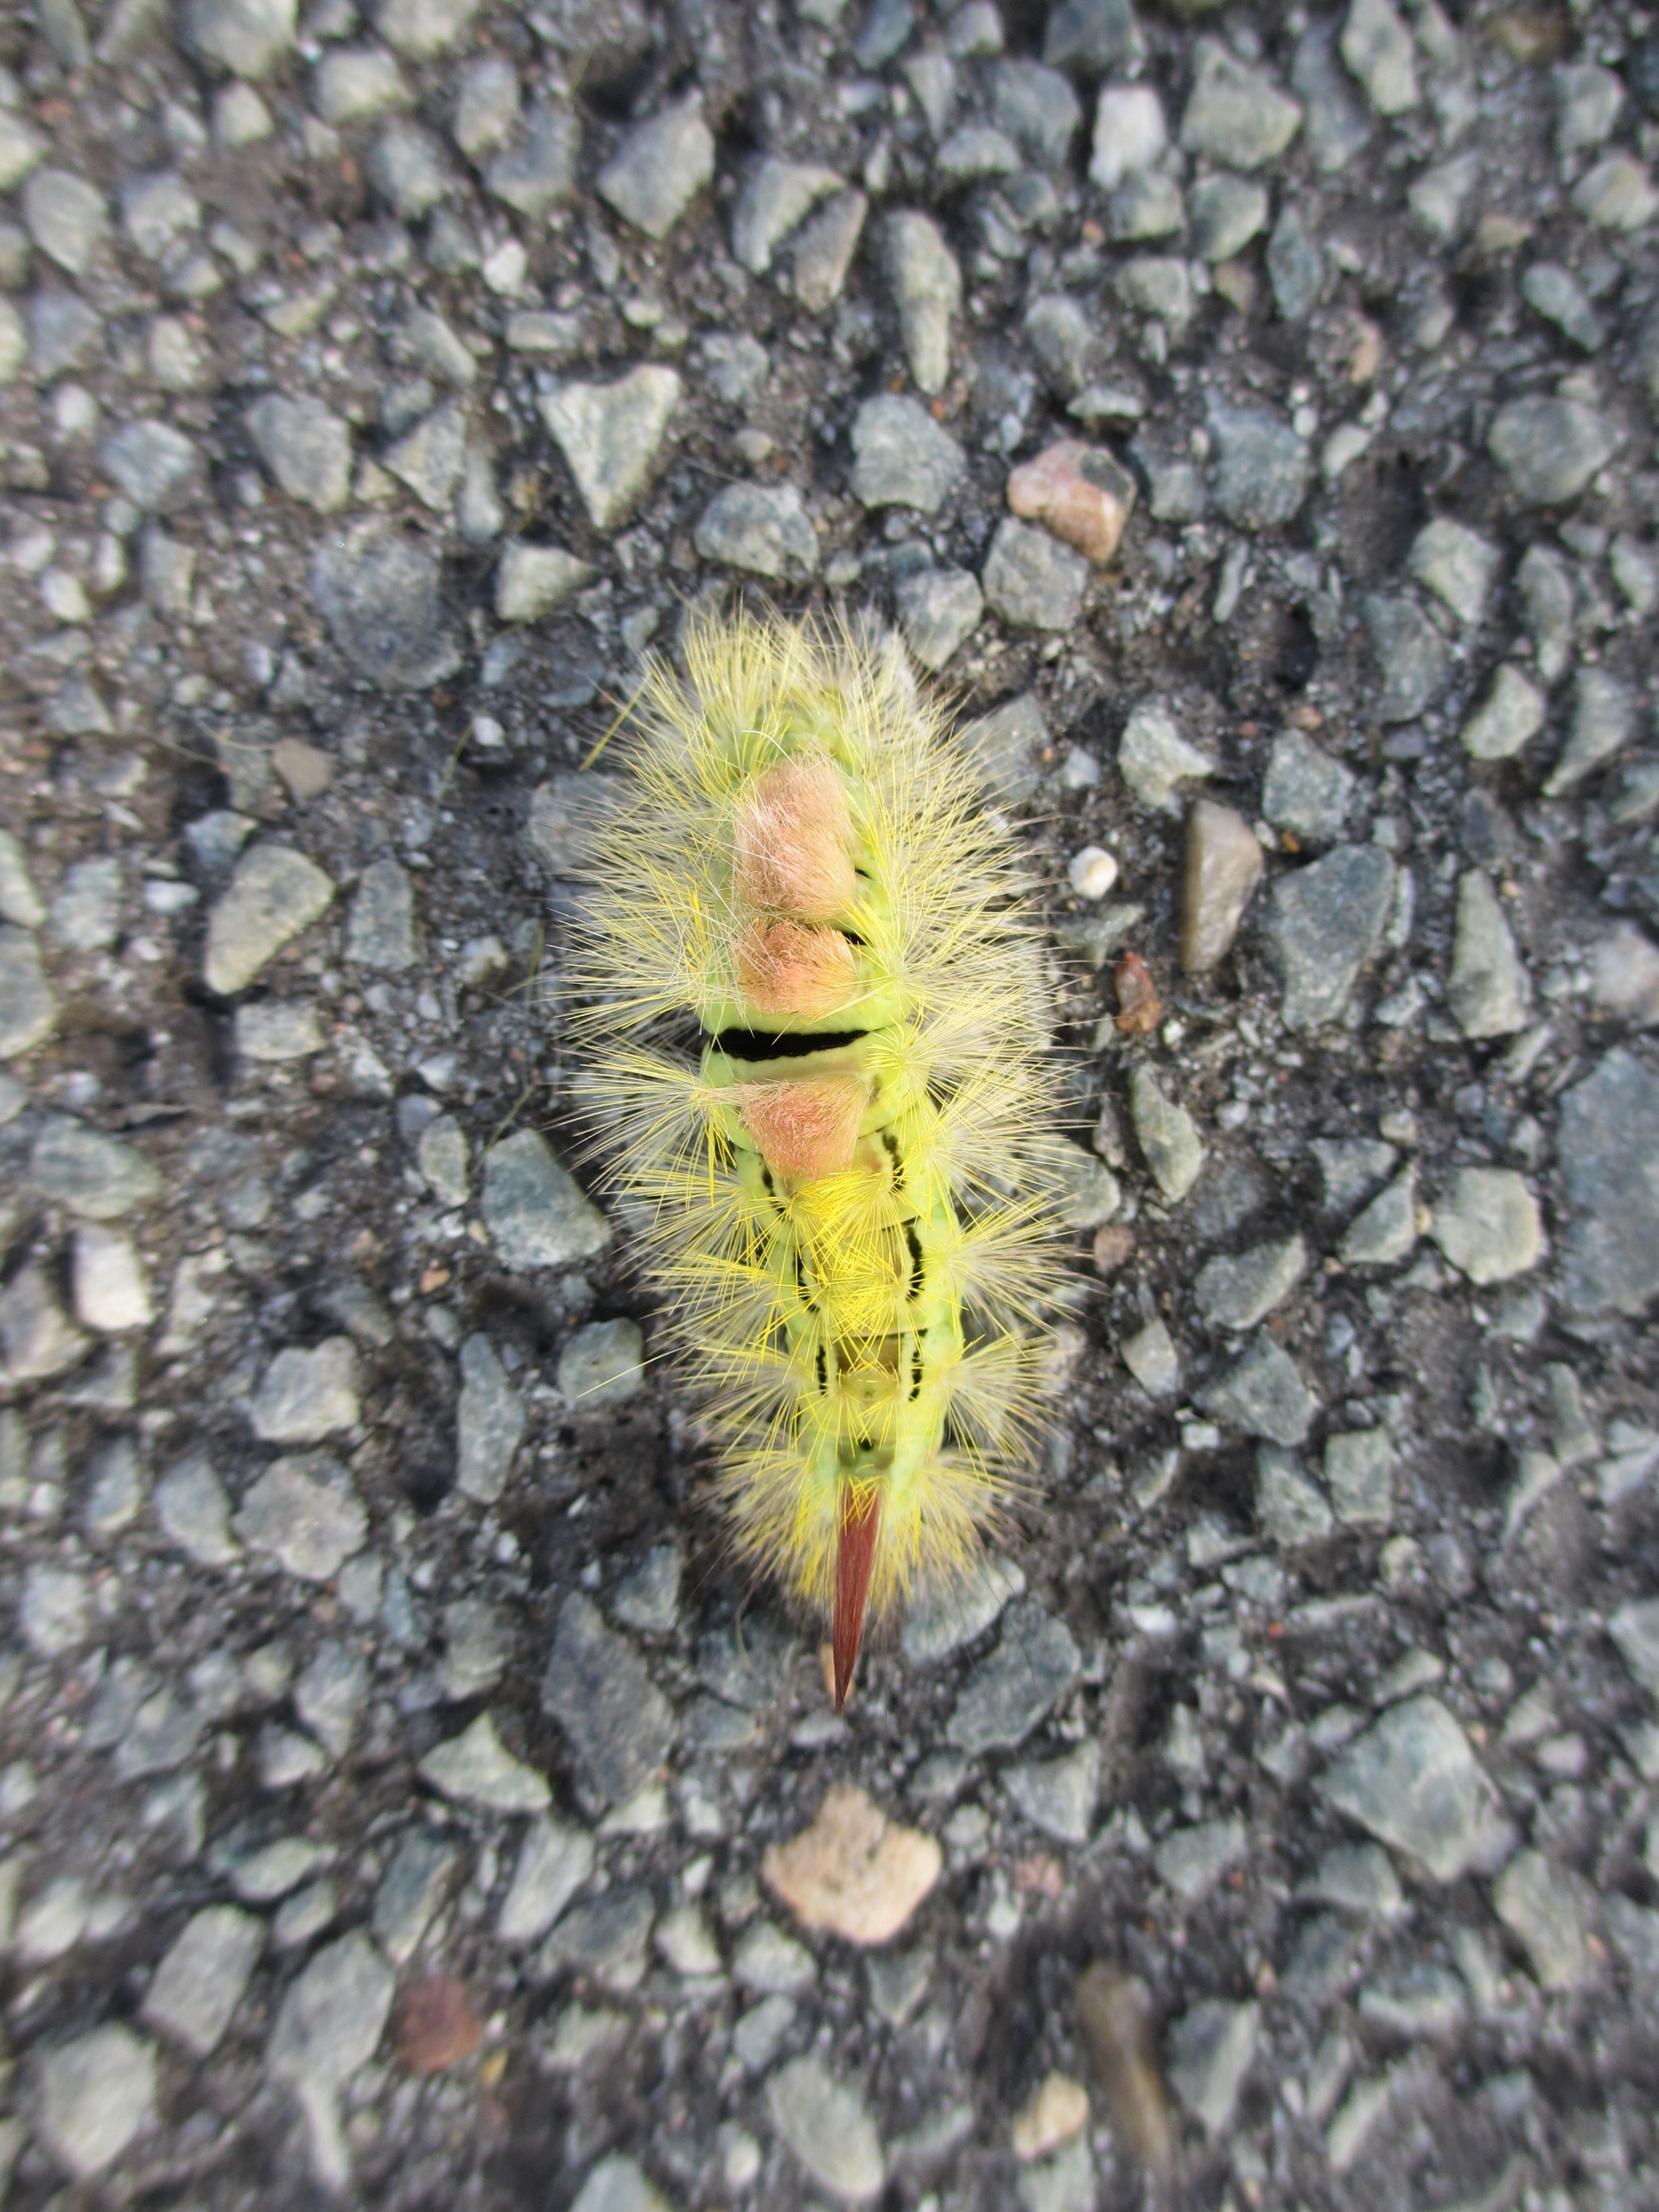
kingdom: Animalia
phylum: Arthropoda
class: Insecta
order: Lepidoptera
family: Erebidae
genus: Calliteara
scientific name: Calliteara pudibunda
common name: Bøgenonne
